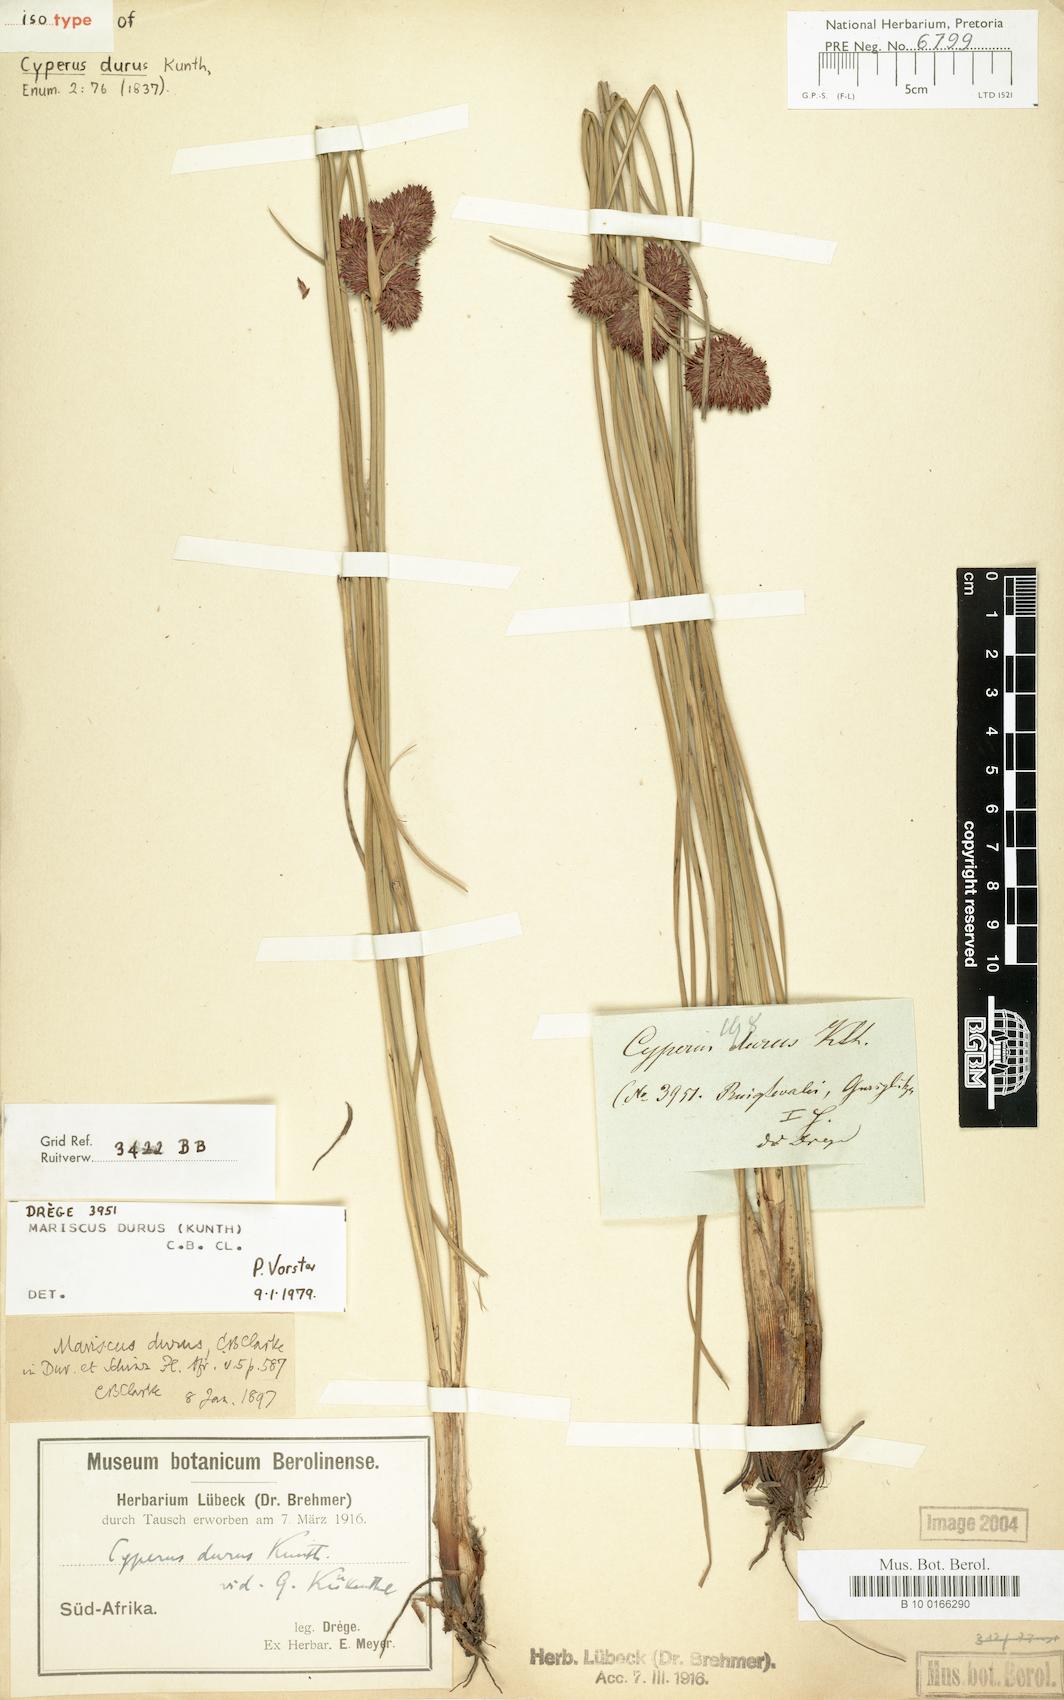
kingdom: Plantae
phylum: Tracheophyta
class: Liliopsida
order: Poales
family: Cyperaceae
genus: Cyperus
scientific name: Cyperus durus
